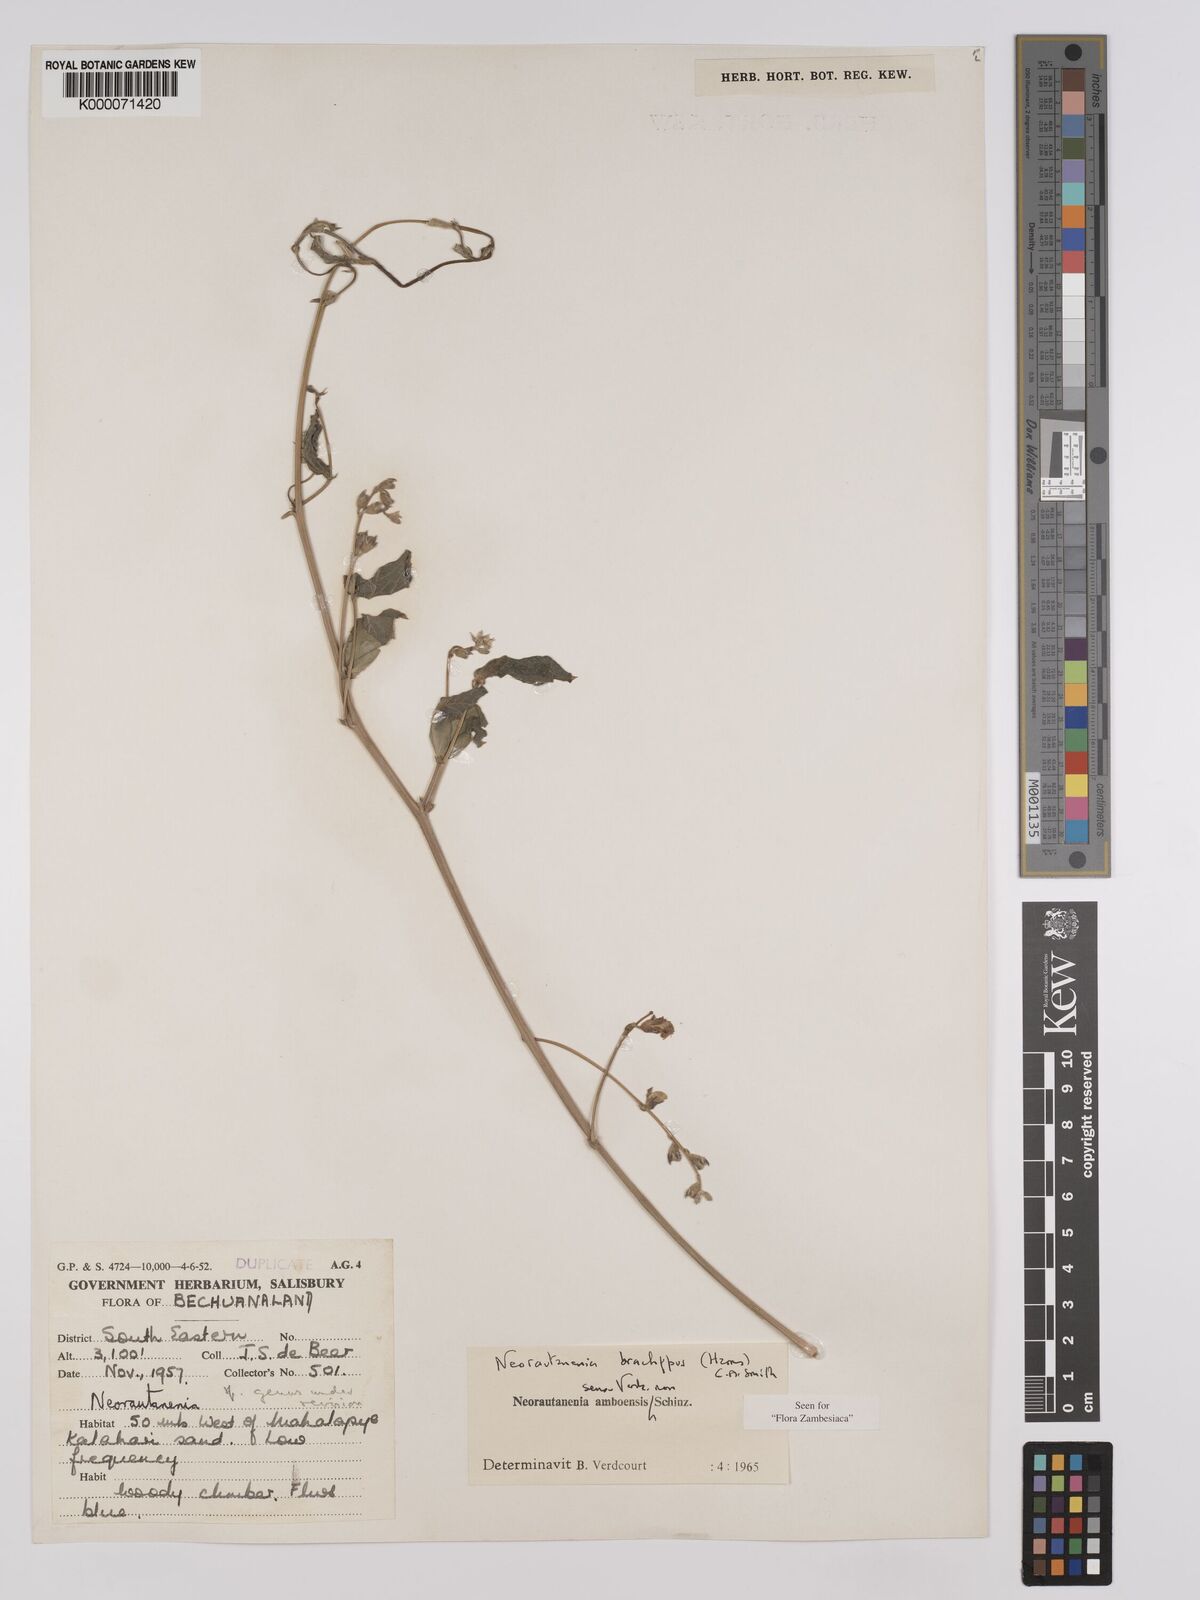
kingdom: Plantae
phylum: Tracheophyta
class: Magnoliopsida
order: Fabales
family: Fabaceae
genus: Neorautanenia
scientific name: Neorautanenia
